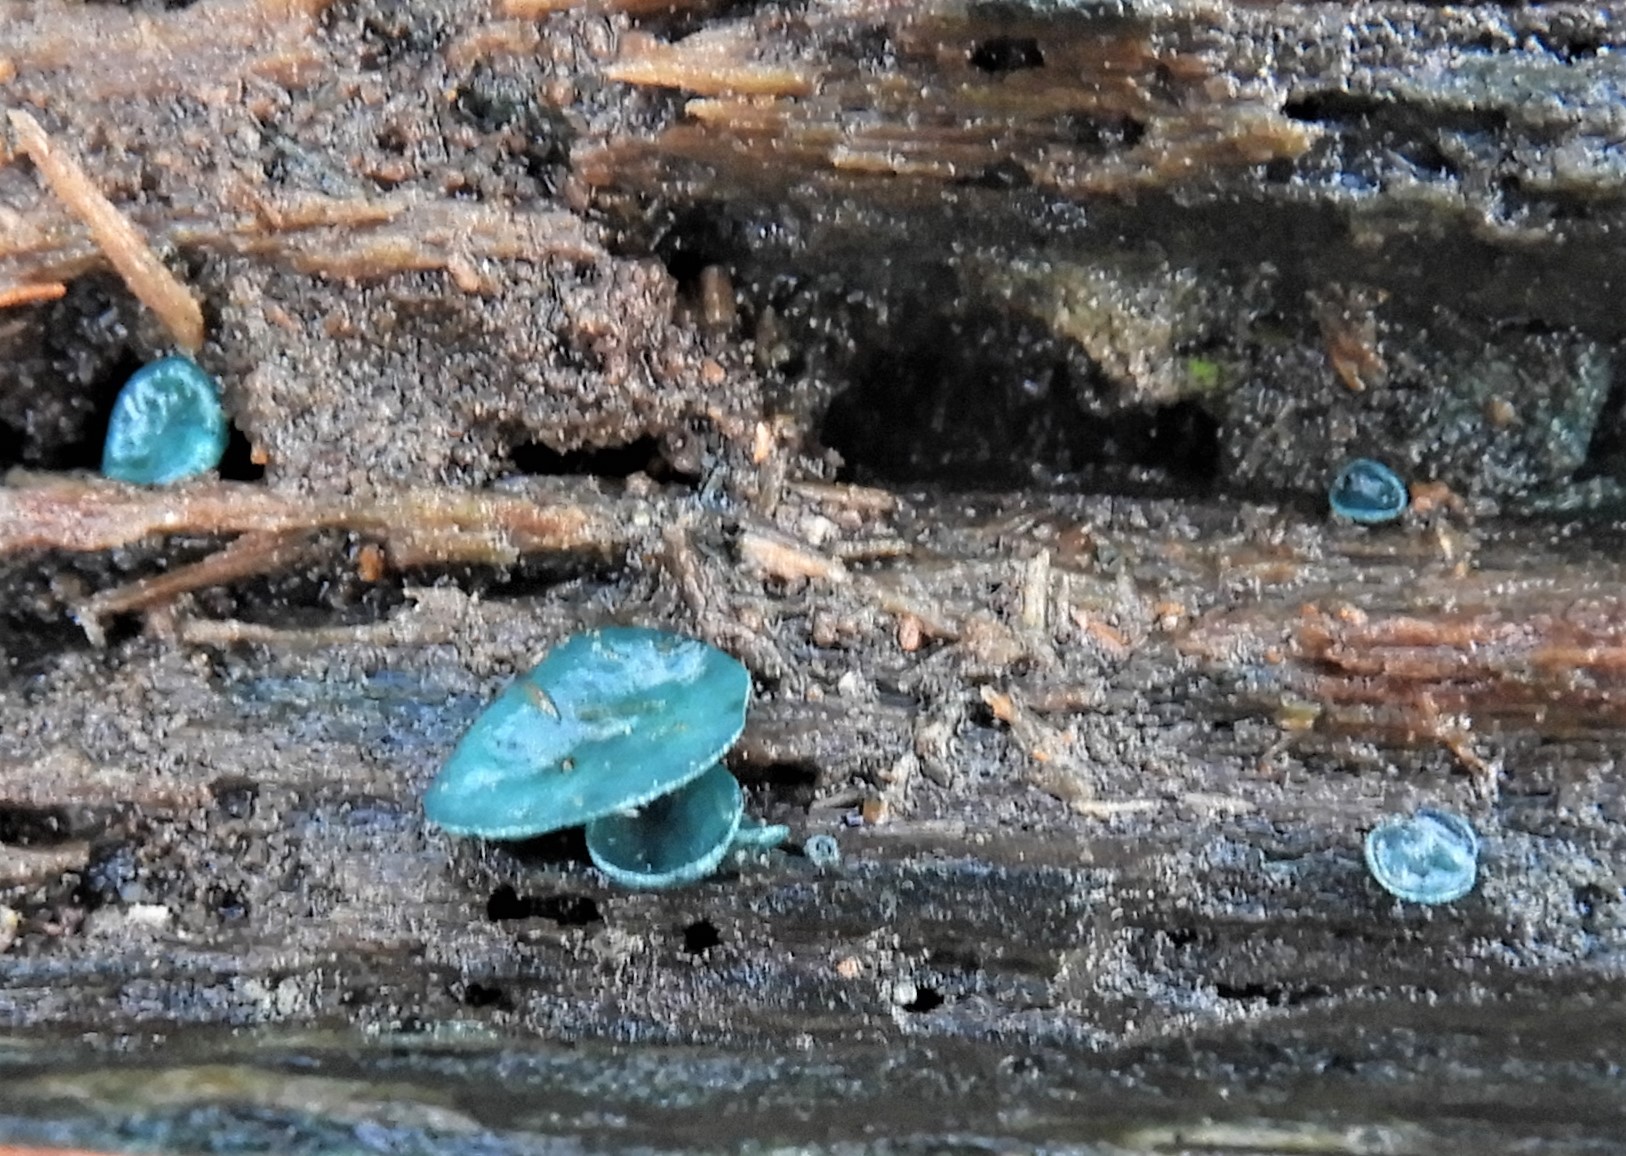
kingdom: Fungi
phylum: Ascomycota
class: Leotiomycetes
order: Helotiales
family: Chlorociboriaceae
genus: Chlorociboria
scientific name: Chlorociboria aeruginascens
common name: almindelig grønskive
